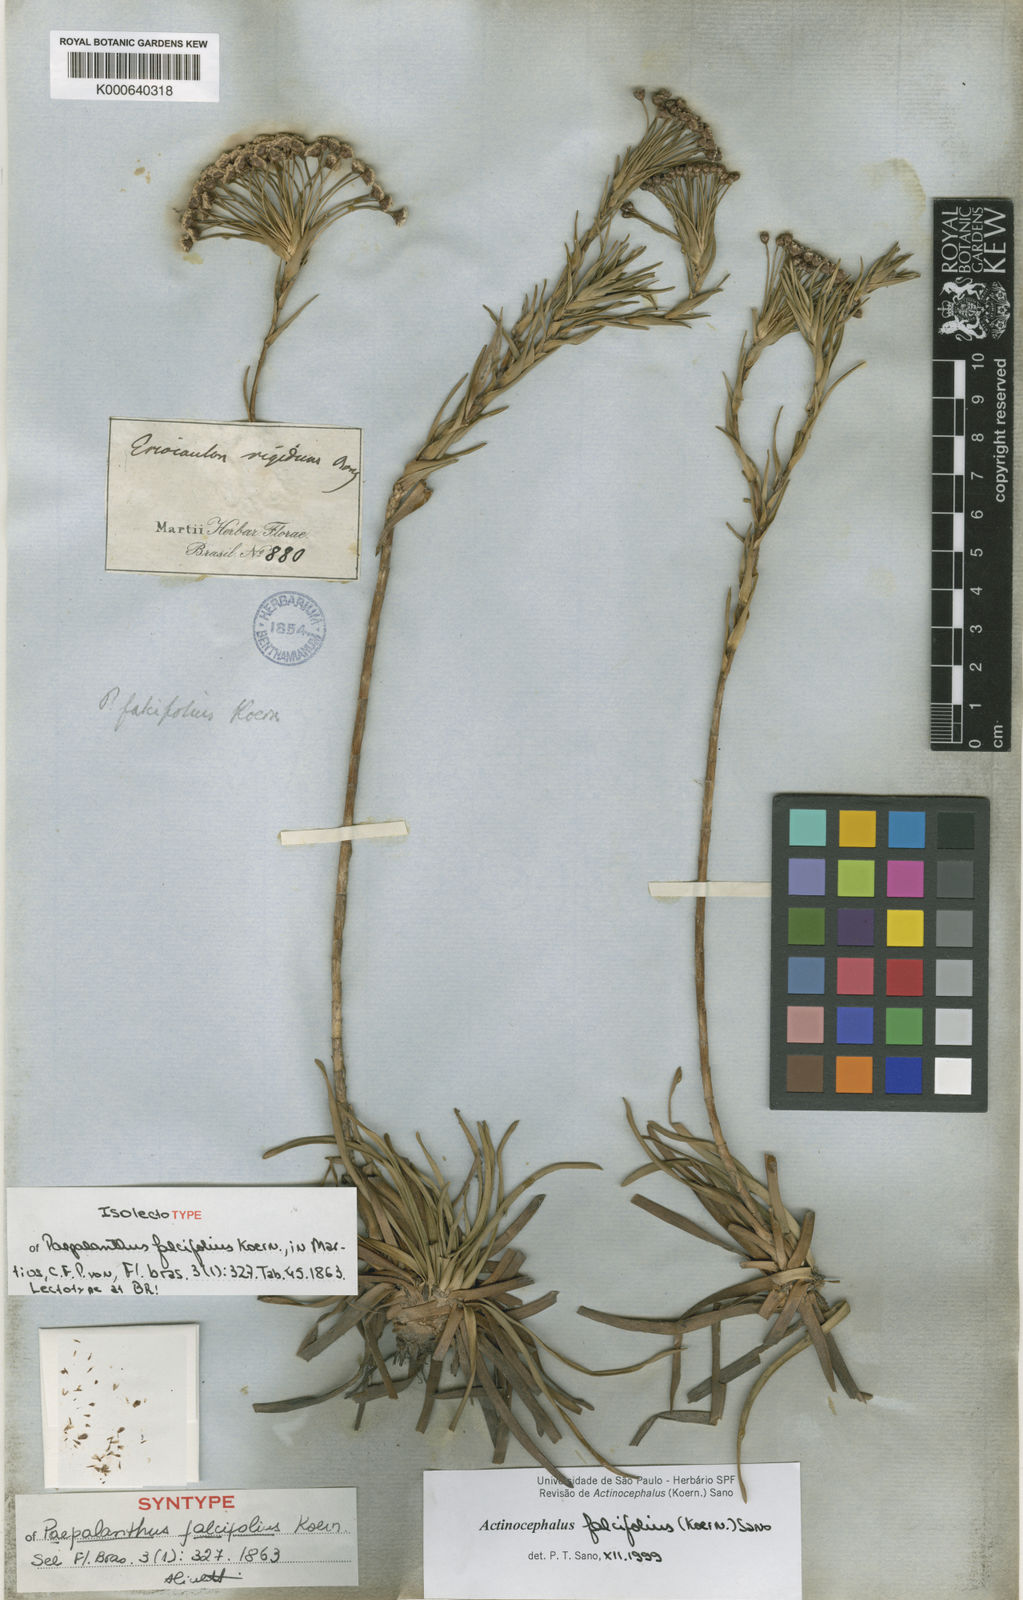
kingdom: Plantae
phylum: Tracheophyta
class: Liliopsida
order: Poales
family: Eriocaulaceae
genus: Paepalanthus
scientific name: Paepalanthus
